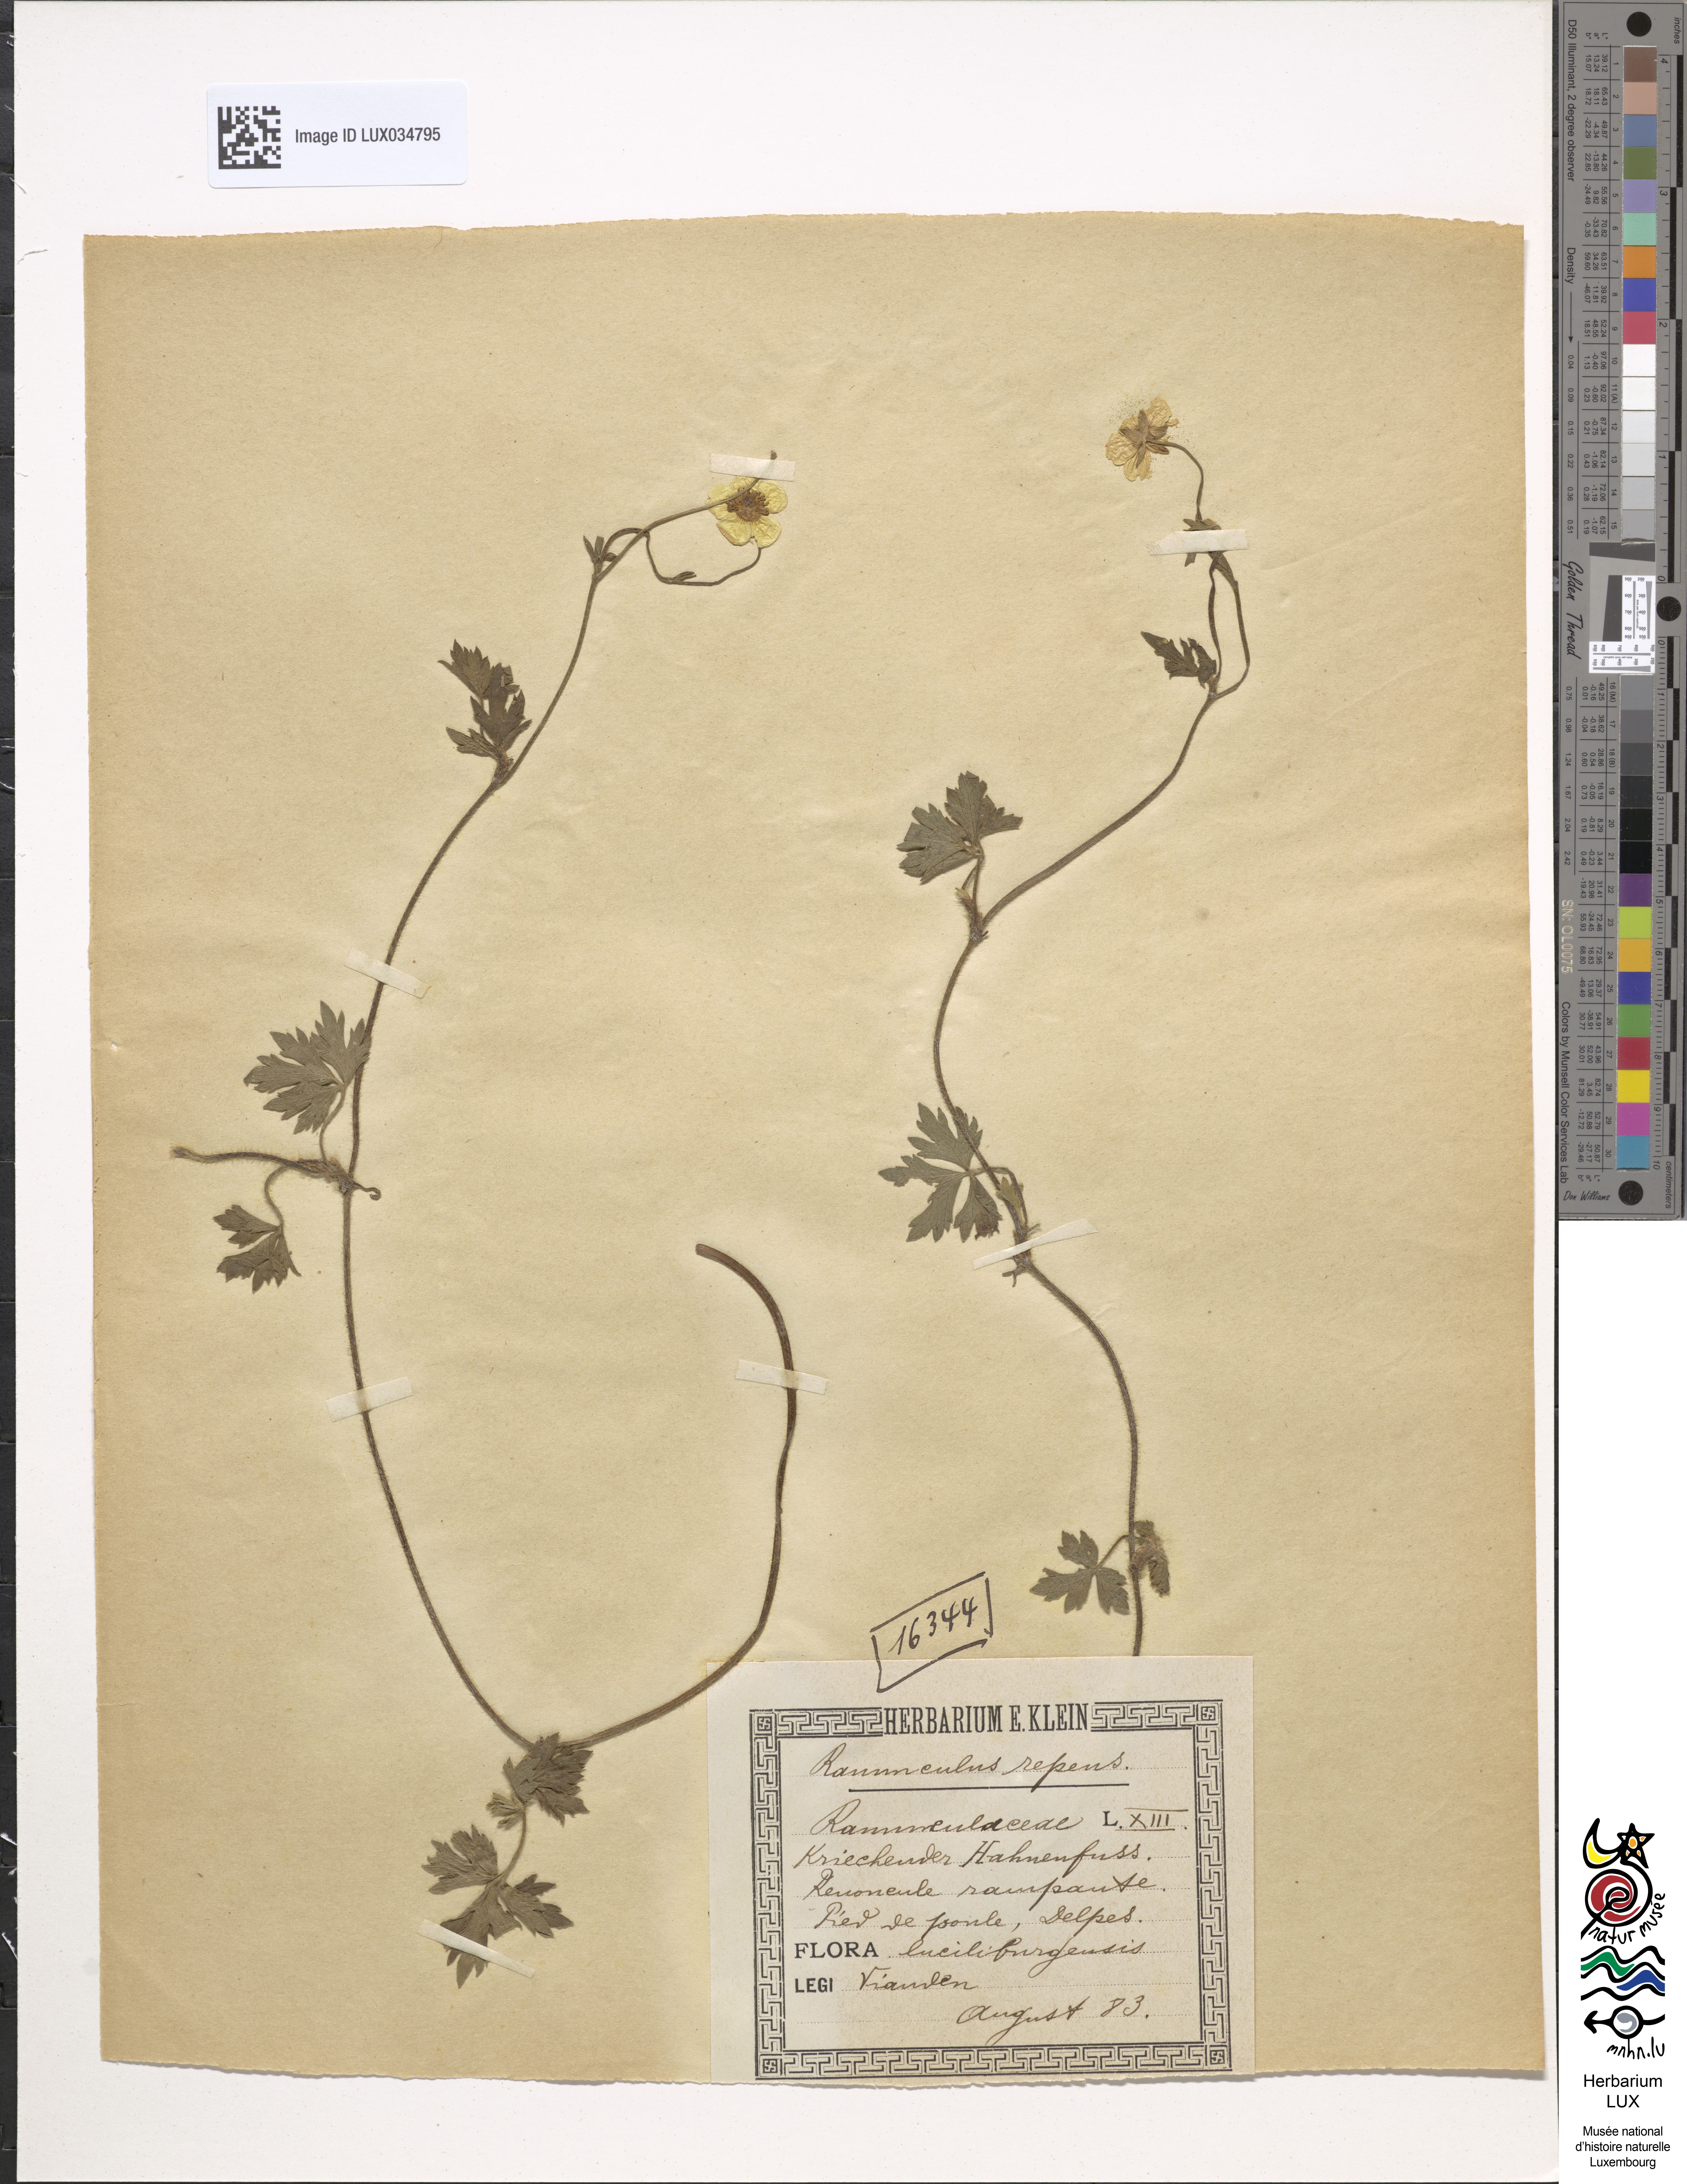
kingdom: Plantae
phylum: Tracheophyta
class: Magnoliopsida
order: Ranunculales
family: Ranunculaceae
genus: Ranunculus
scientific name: Ranunculus repens
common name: Creeping buttercup
